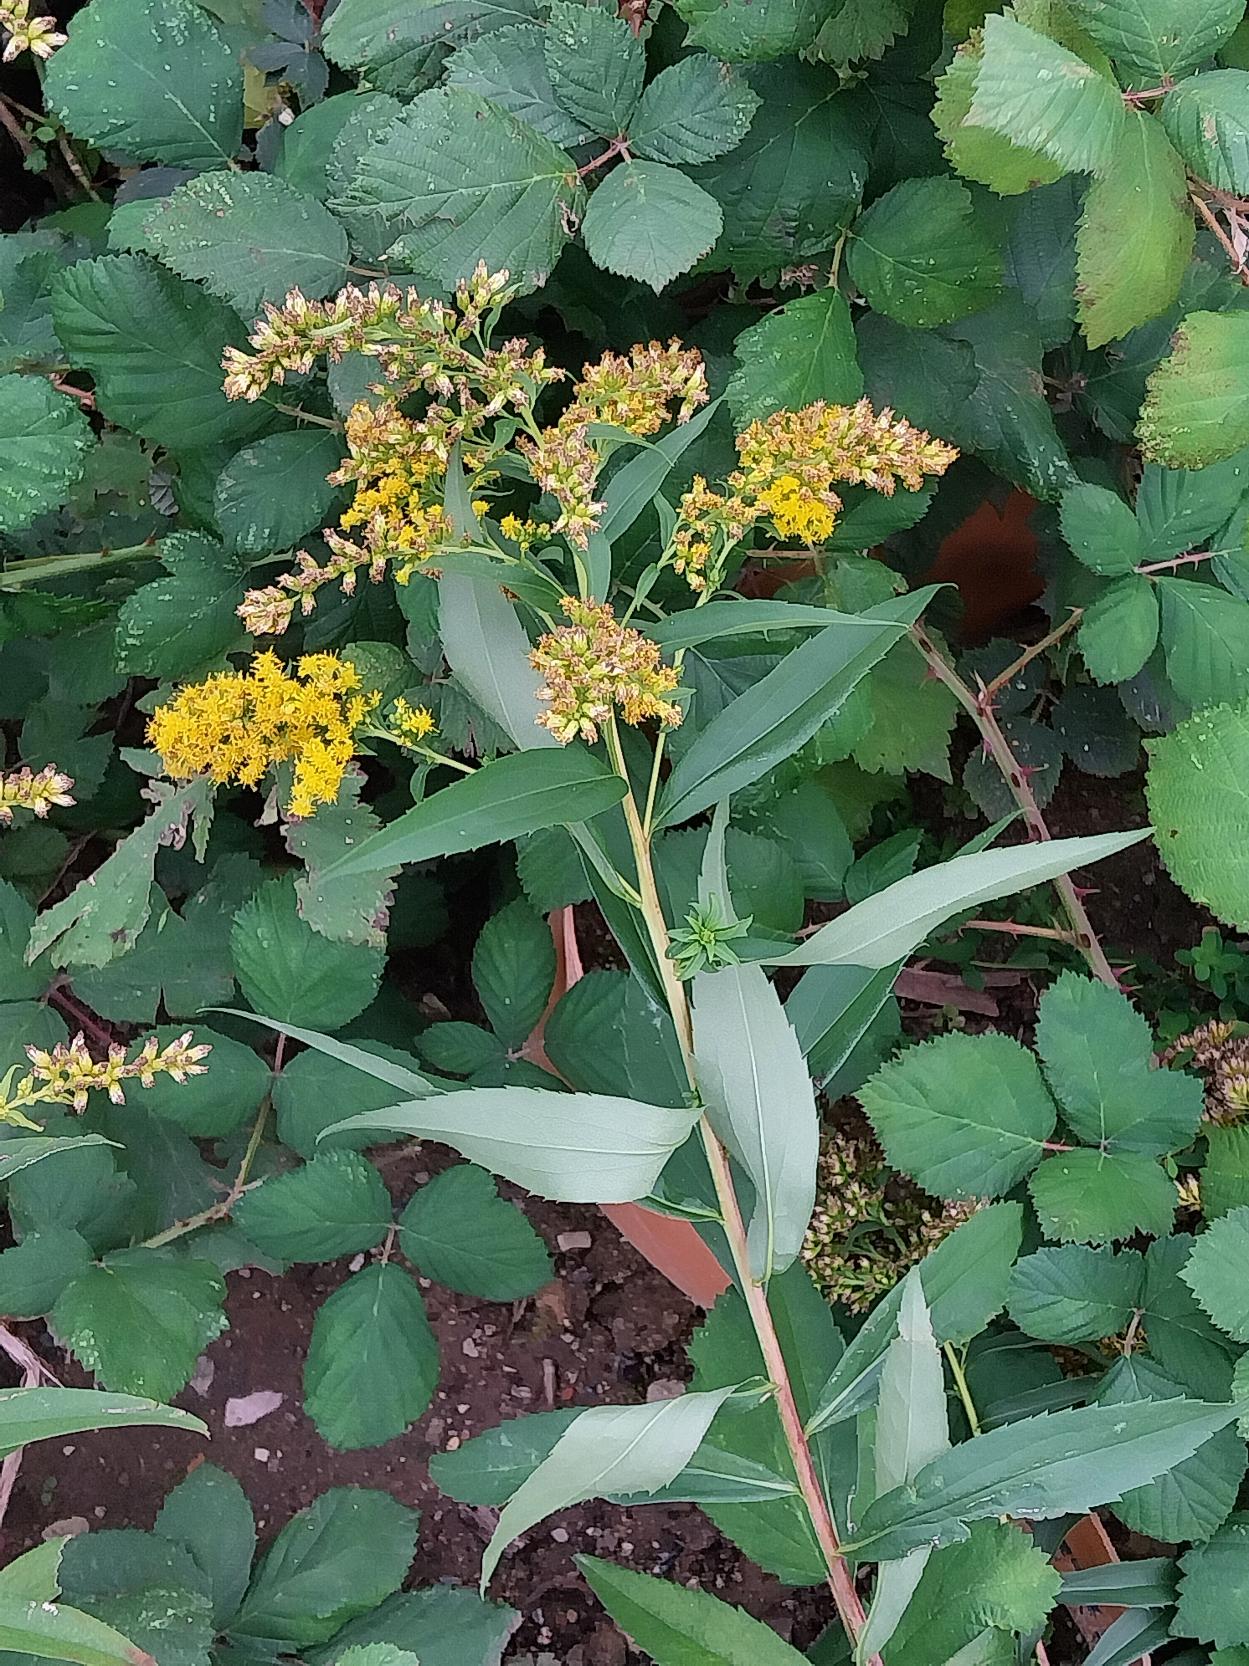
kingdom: Plantae
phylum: Tracheophyta
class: Magnoliopsida
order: Asterales
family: Asteraceae
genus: Solidago
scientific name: Solidago gigantea
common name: Sildig gyldenris
